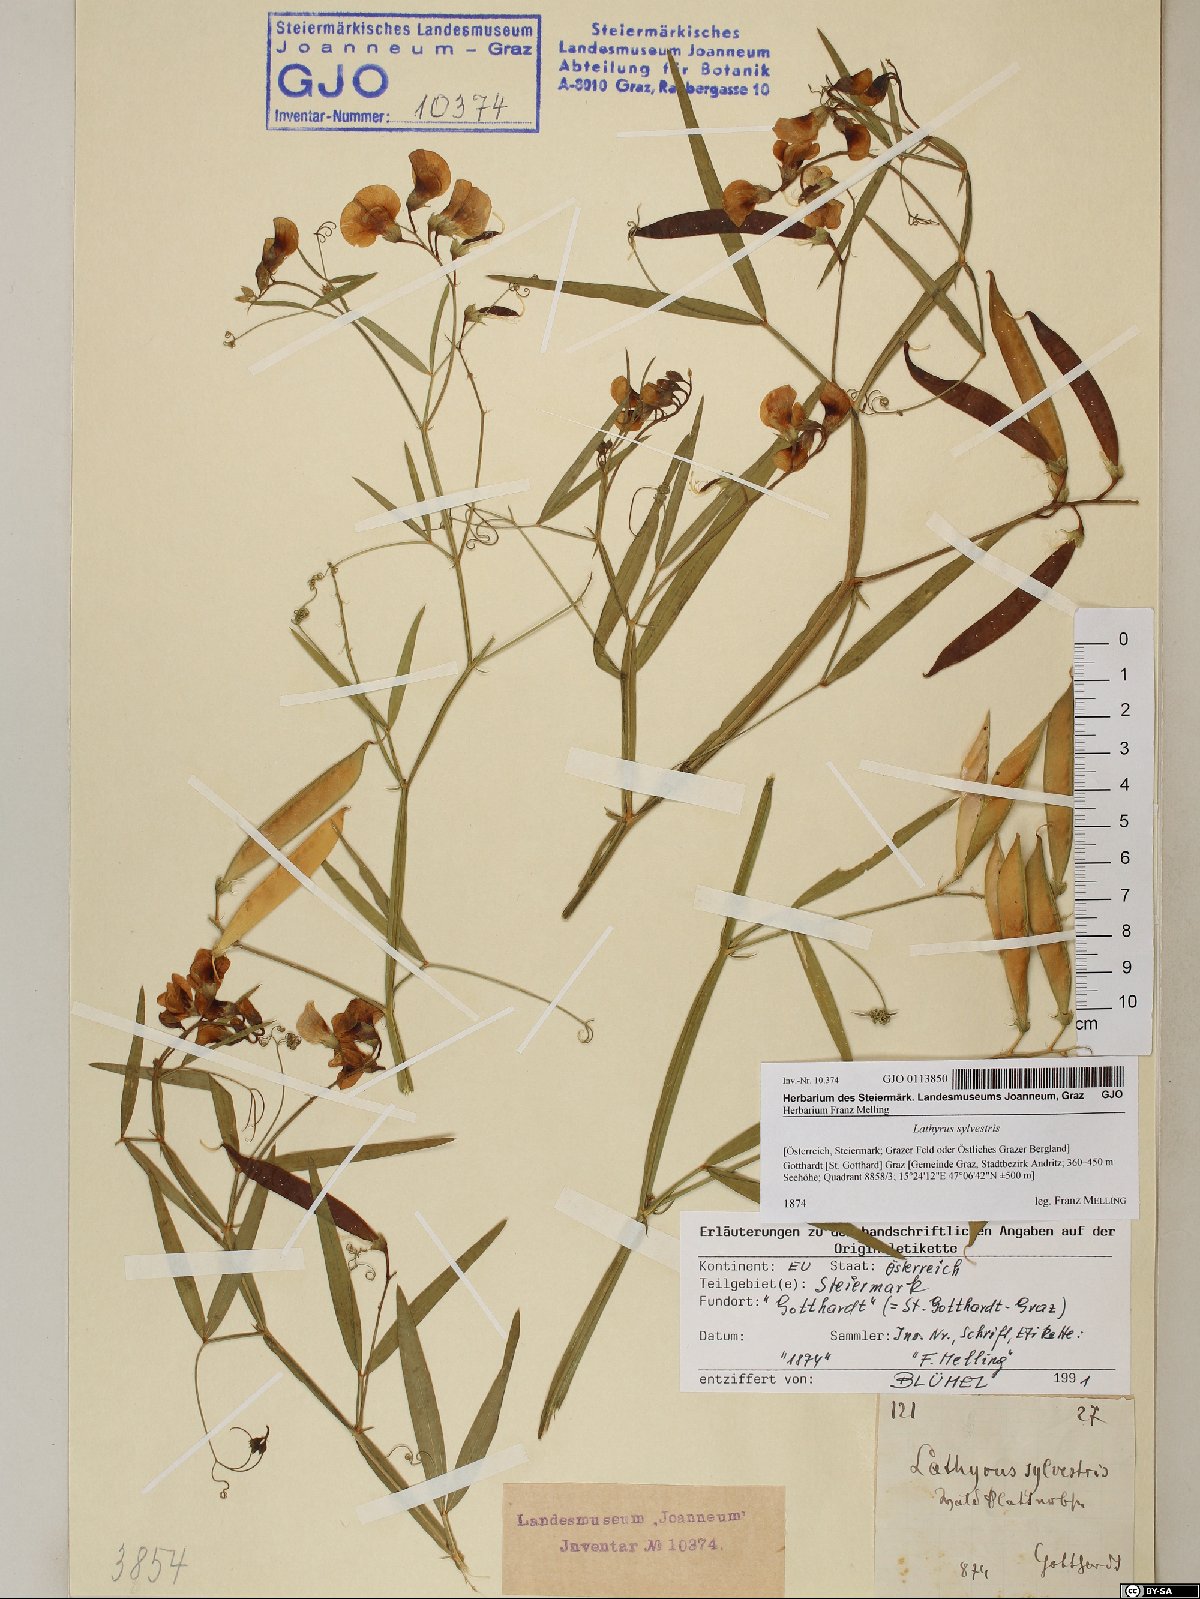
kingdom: Plantae
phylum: Tracheophyta
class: Magnoliopsida
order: Fabales
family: Fabaceae
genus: Lathyrus
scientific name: Lathyrus sylvestris
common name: Flat pea
